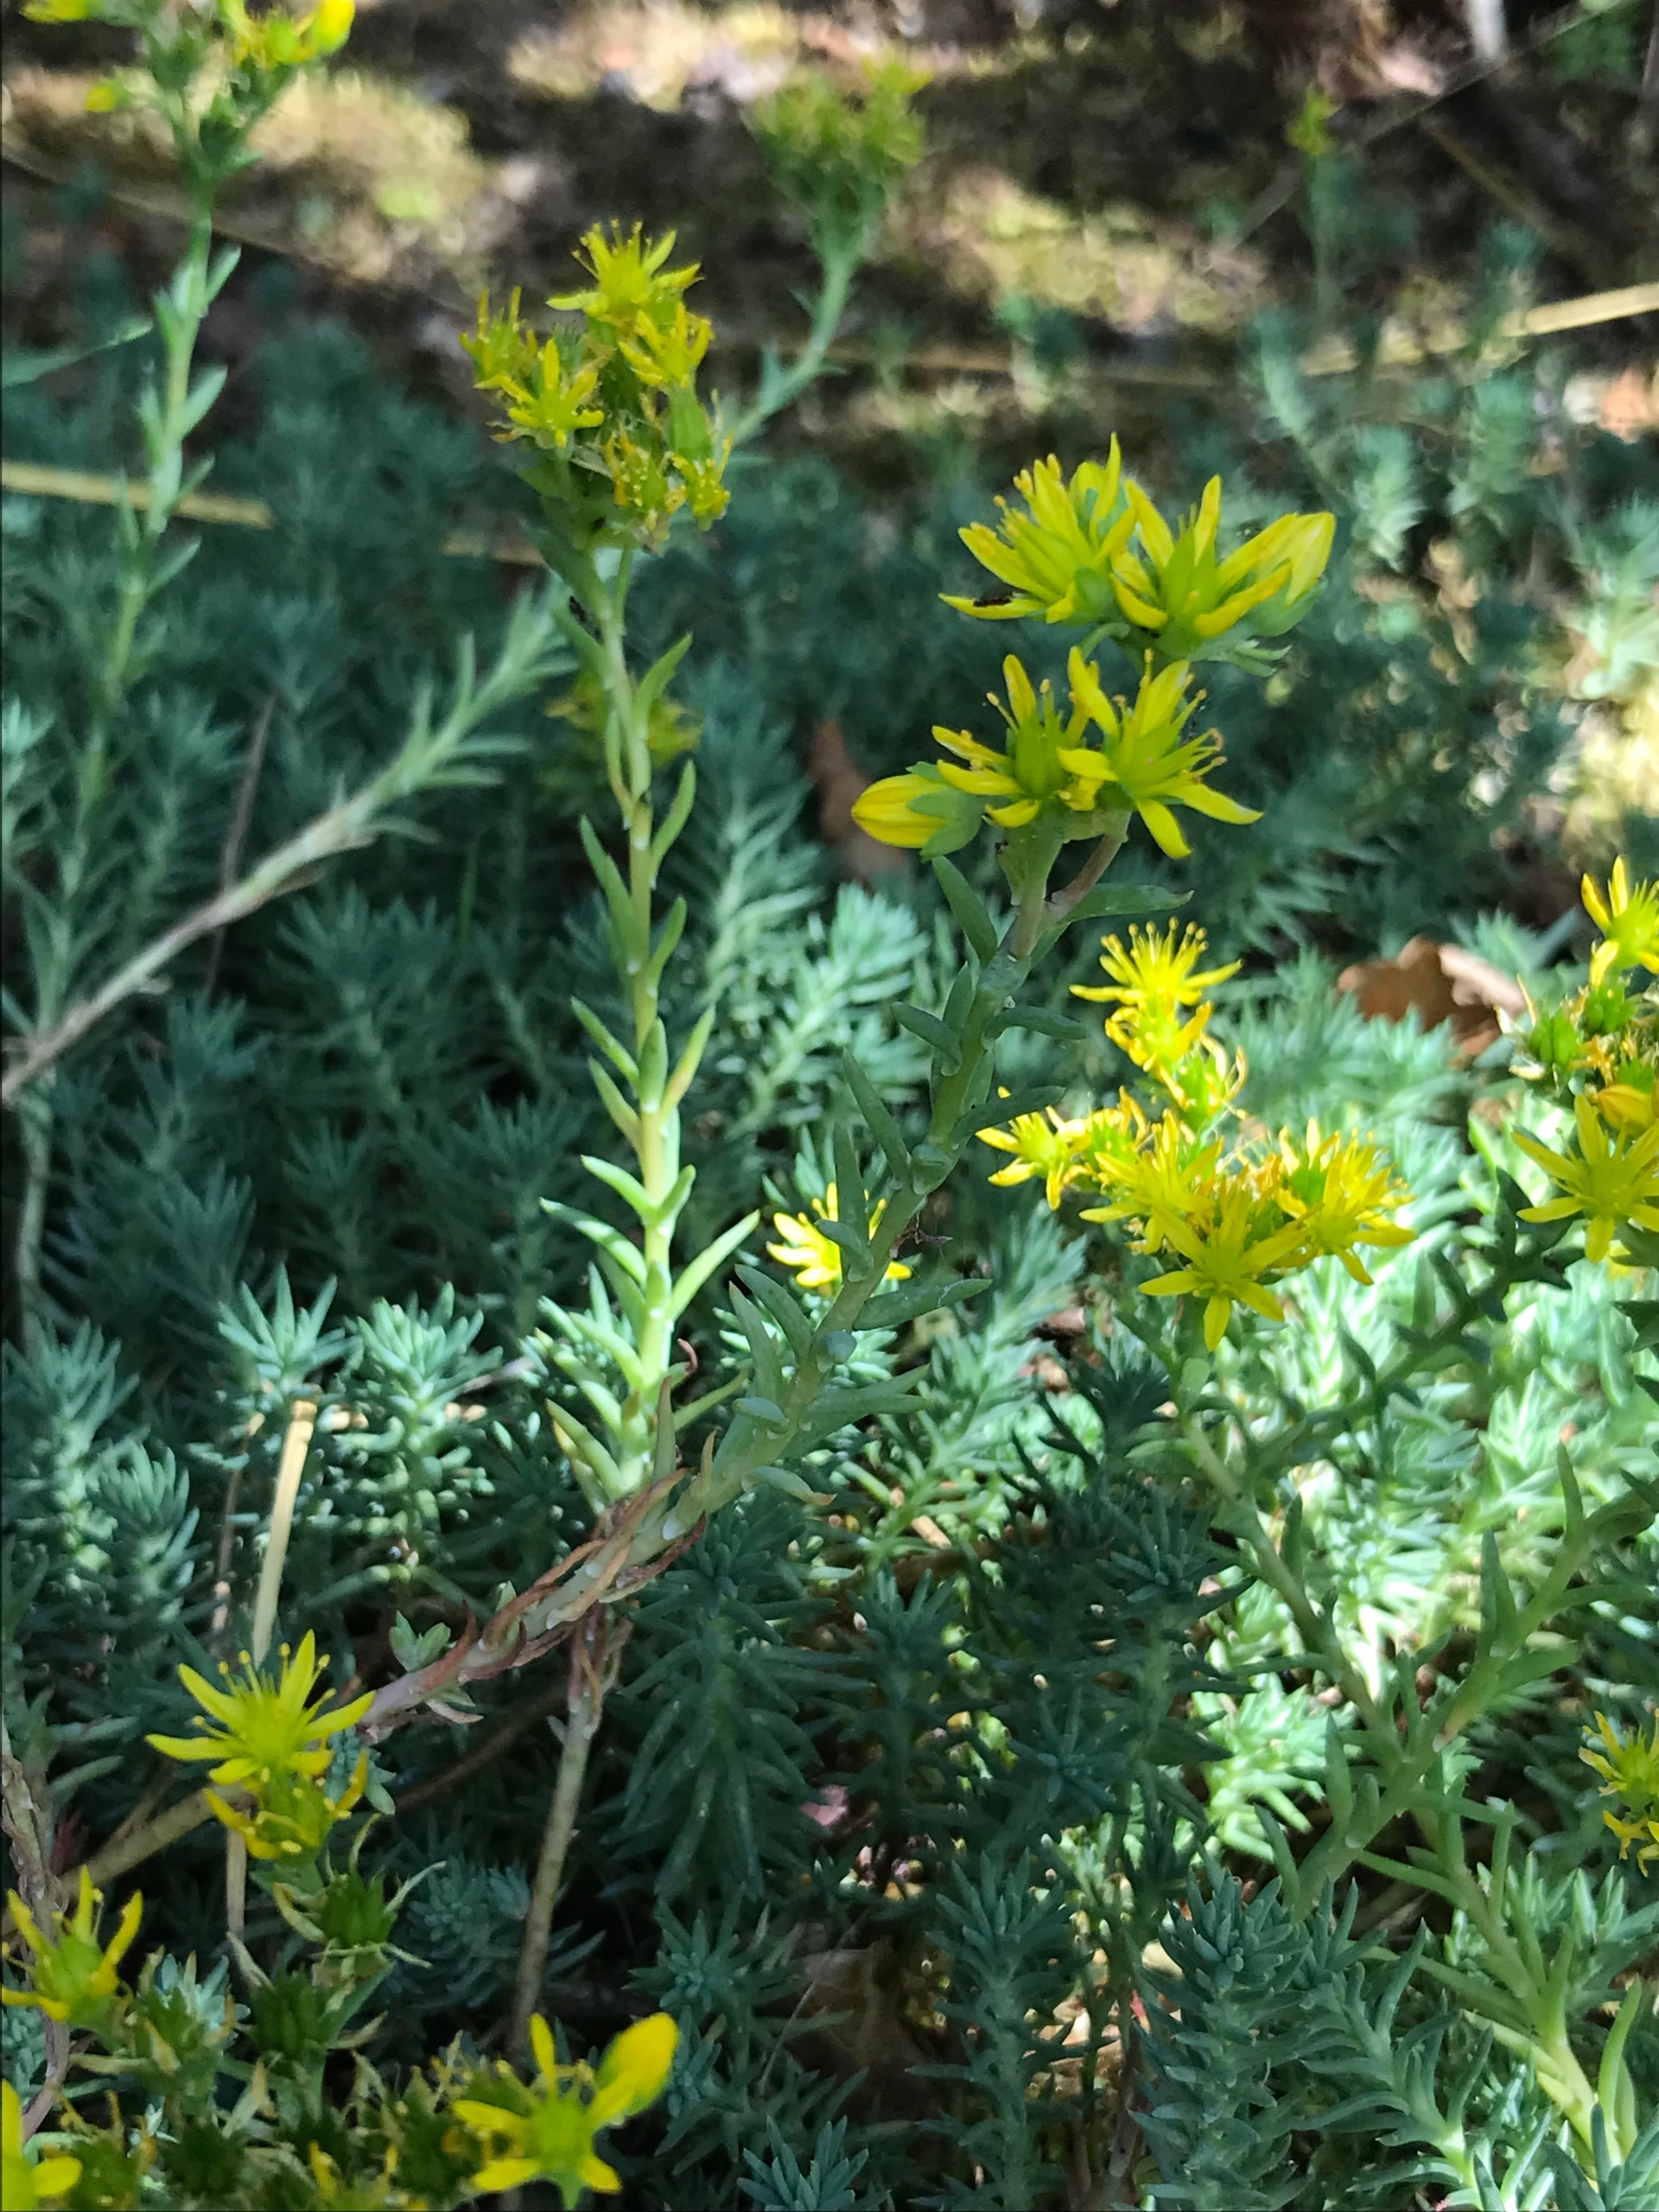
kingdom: Plantae
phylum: Tracheophyta
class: Magnoliopsida
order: Saxifragales
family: Crassulaceae
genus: Petrosedum
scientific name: Petrosedum rupestre
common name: Bjerg-stenurt
